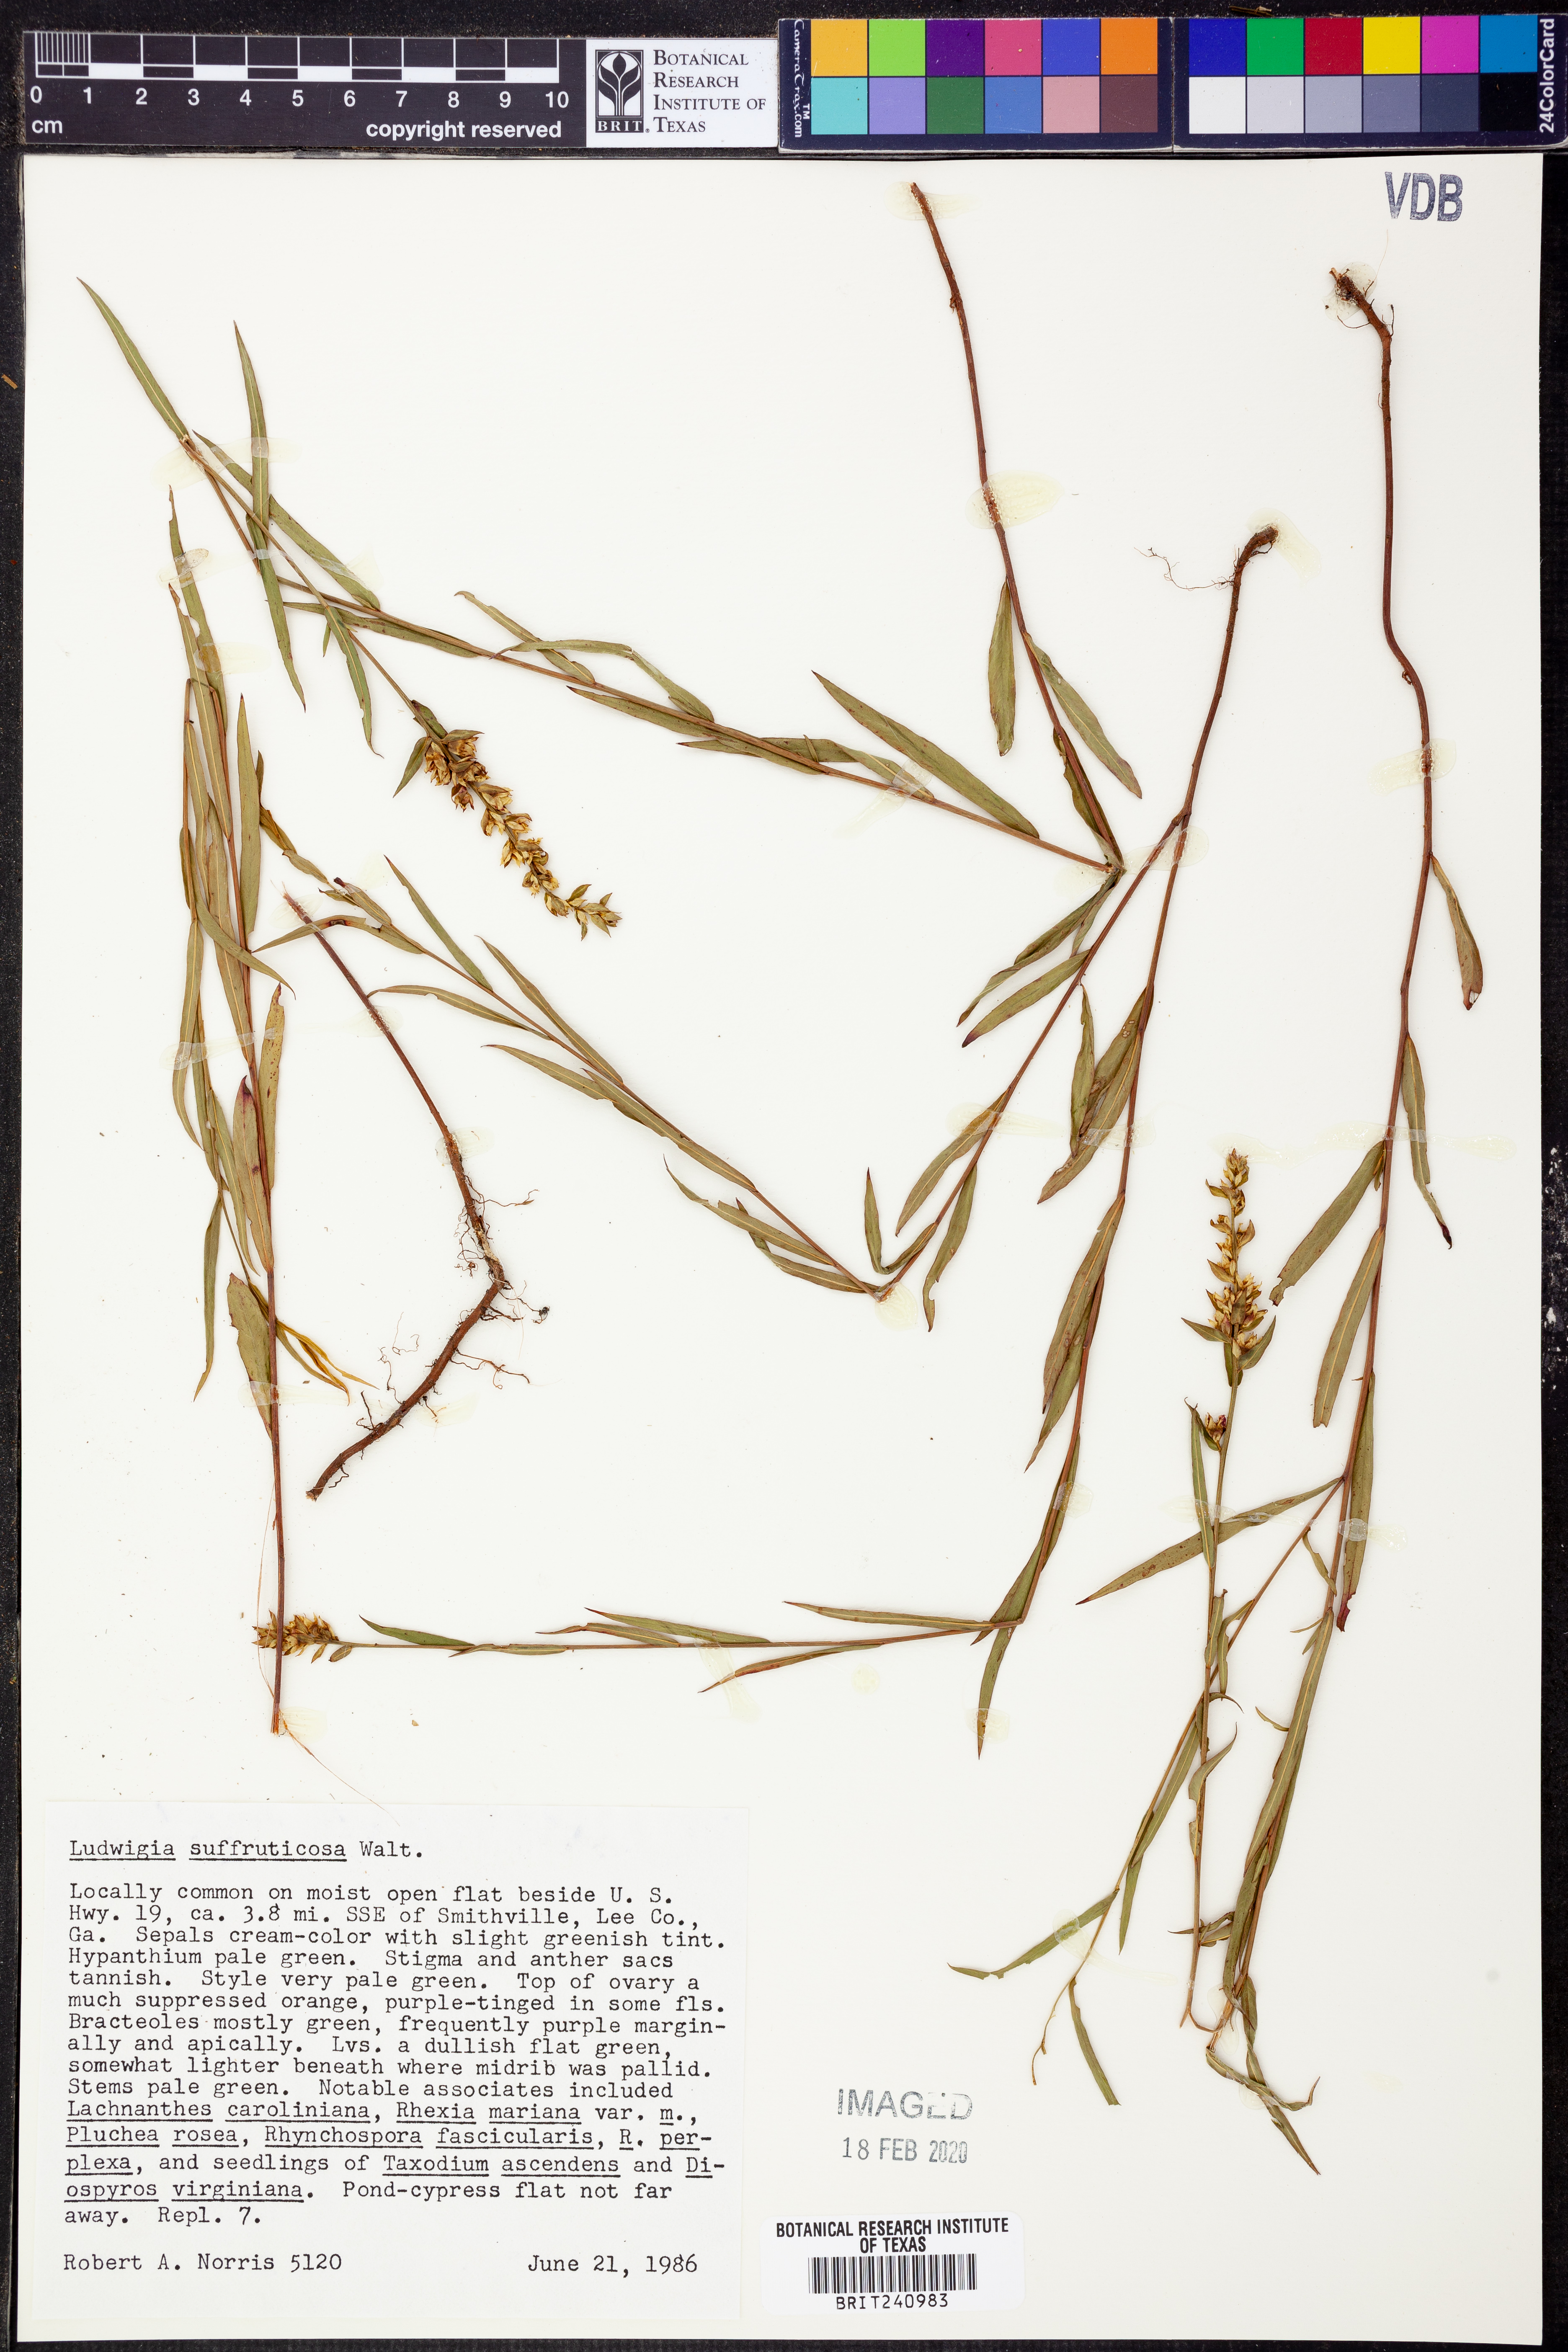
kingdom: Plantae
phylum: Tracheophyta
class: Magnoliopsida
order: Myrtales
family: Onagraceae
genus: Ludwigia
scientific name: Ludwigia suffruticosa
